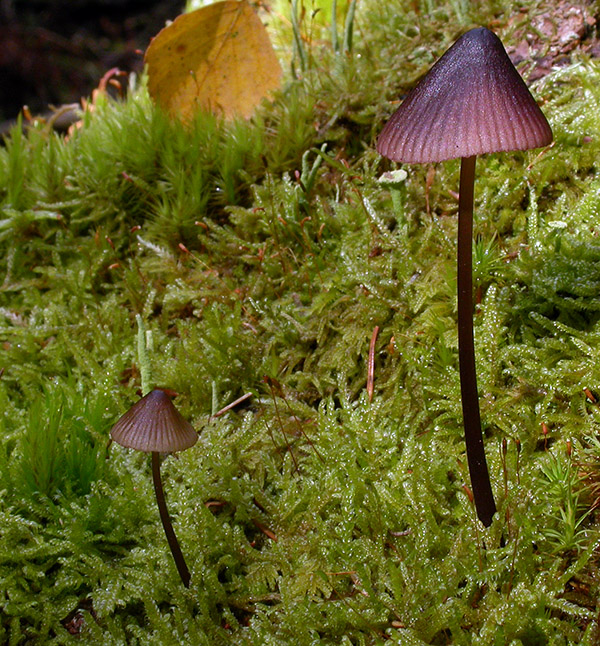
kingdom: Fungi
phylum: Basidiomycota
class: Agaricomycetes
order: Agaricales
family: Mycenaceae
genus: Mycena
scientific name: Mycena purpureofusca
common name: purpur-huesvamp
